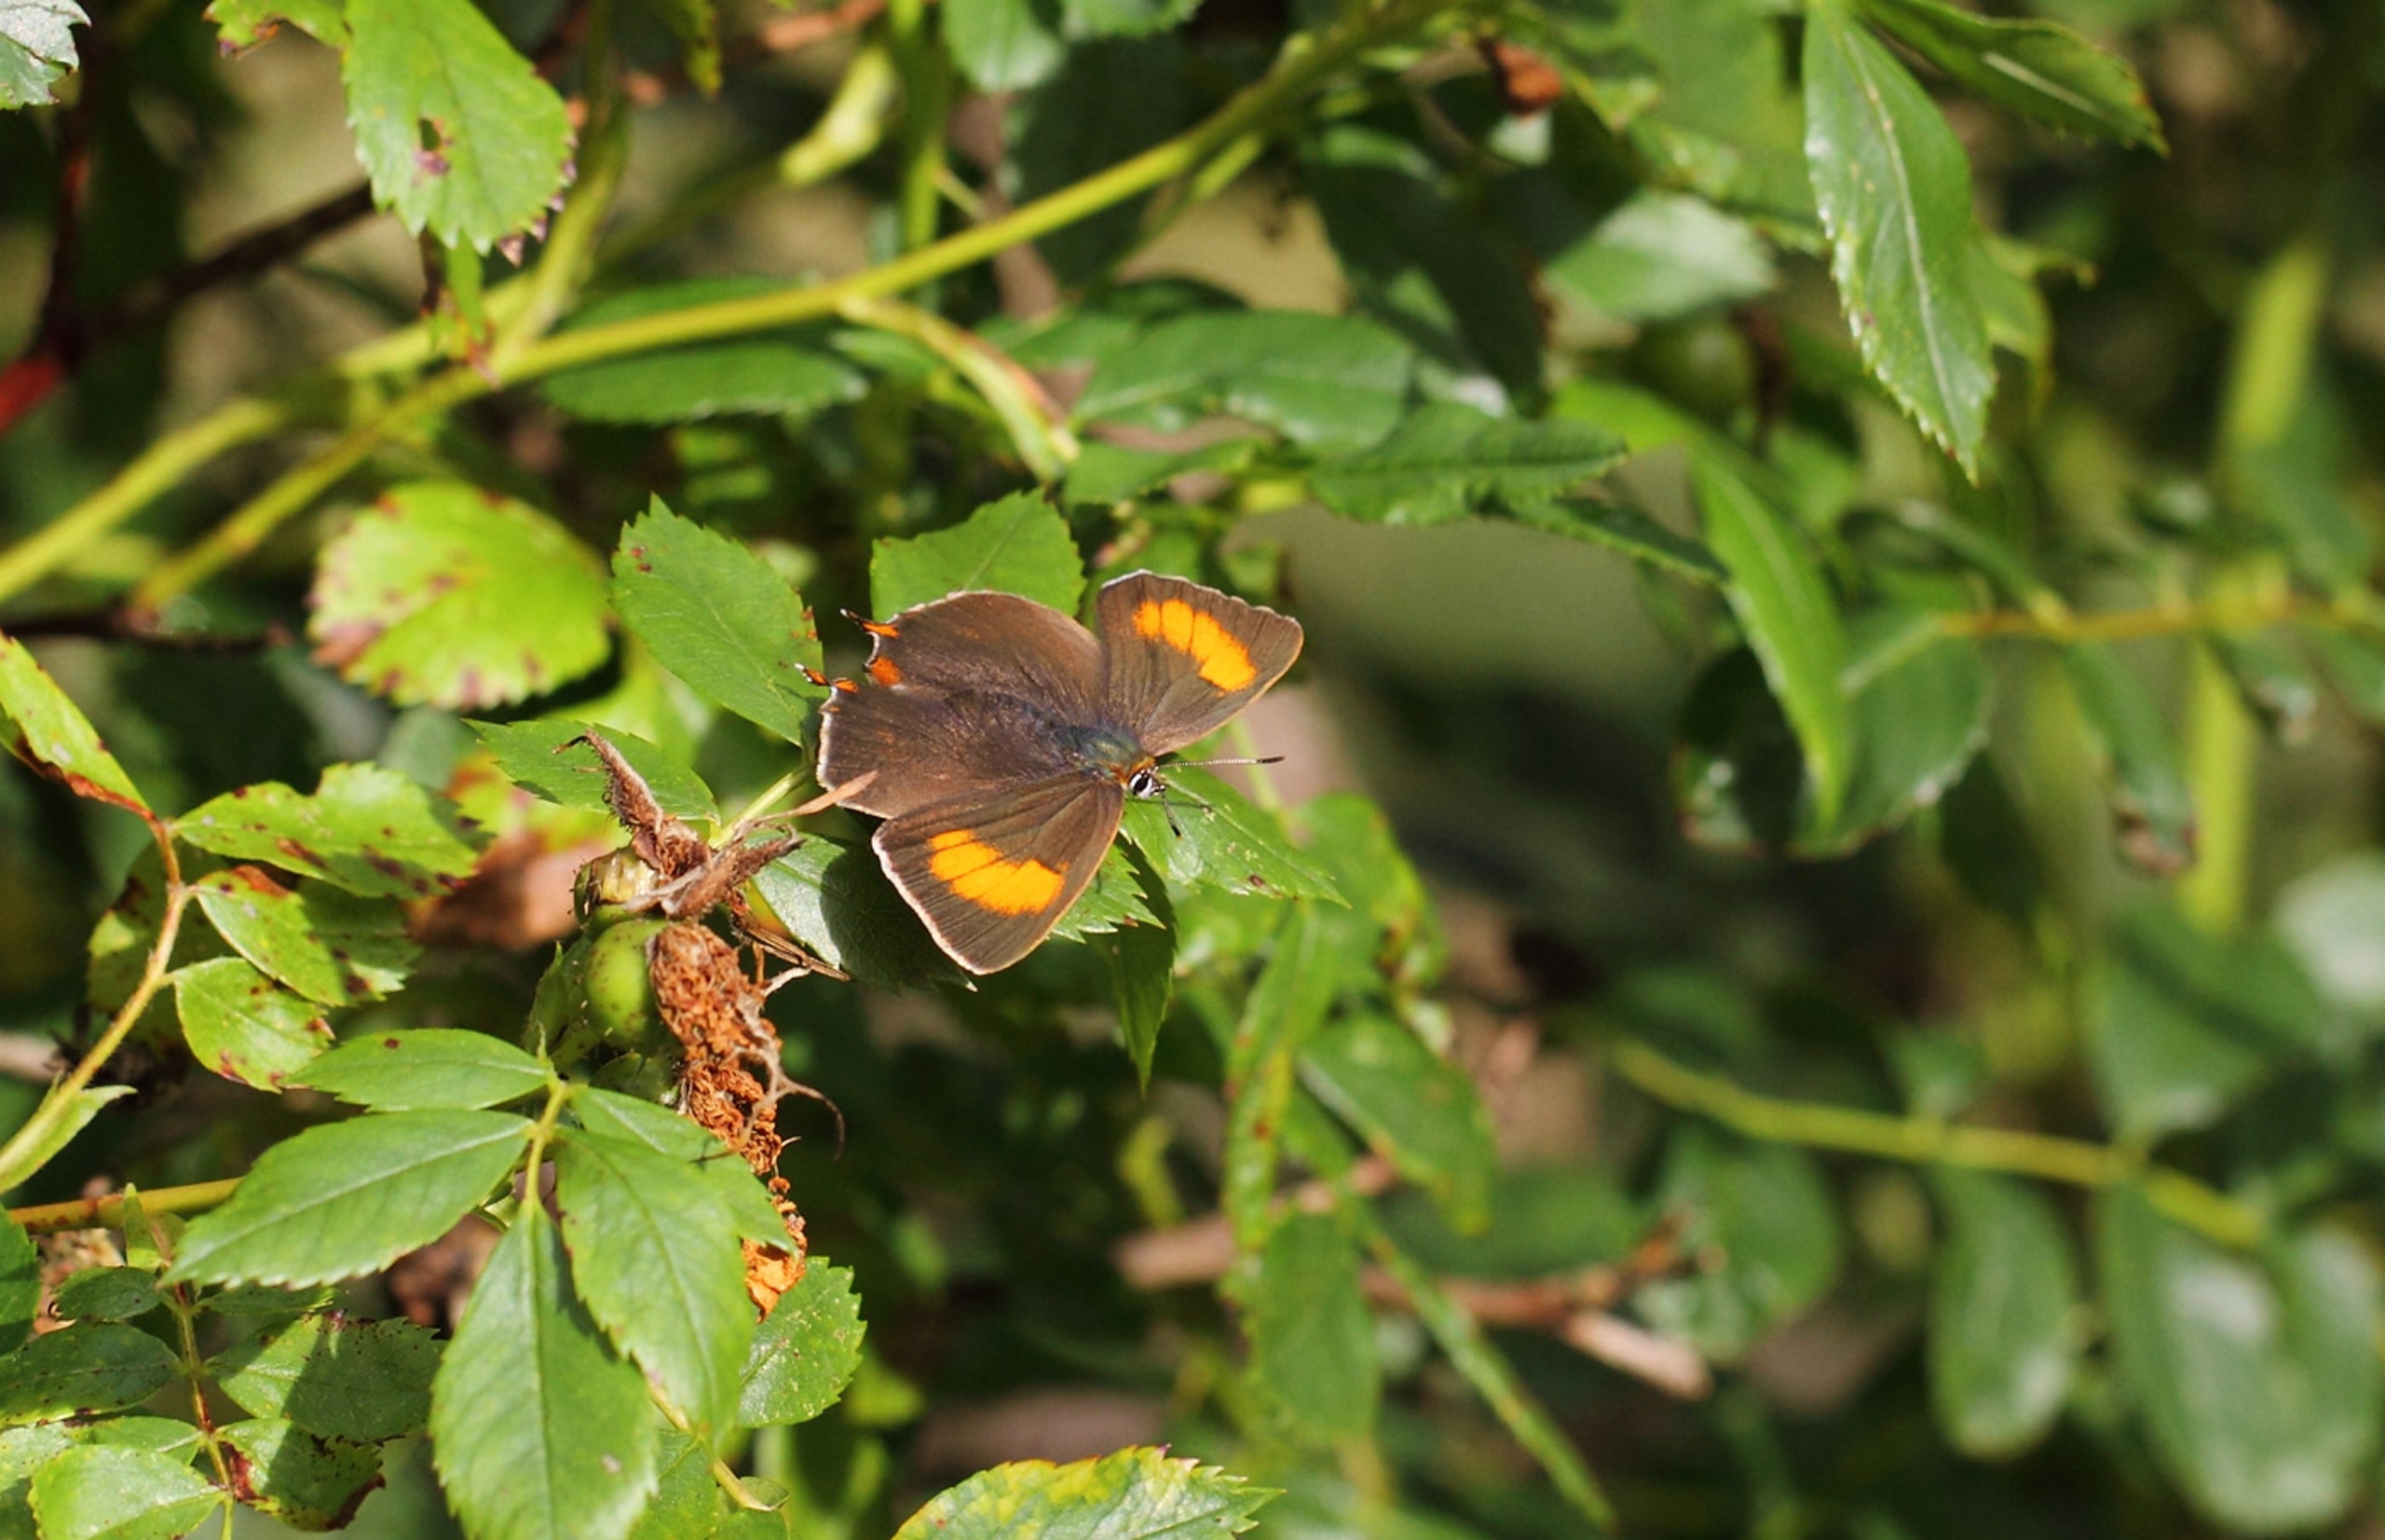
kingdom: Animalia
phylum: Arthropoda
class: Insecta
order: Lepidoptera
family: Lycaenidae
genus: Thecla
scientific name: Thecla betulae
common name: Guldhale
